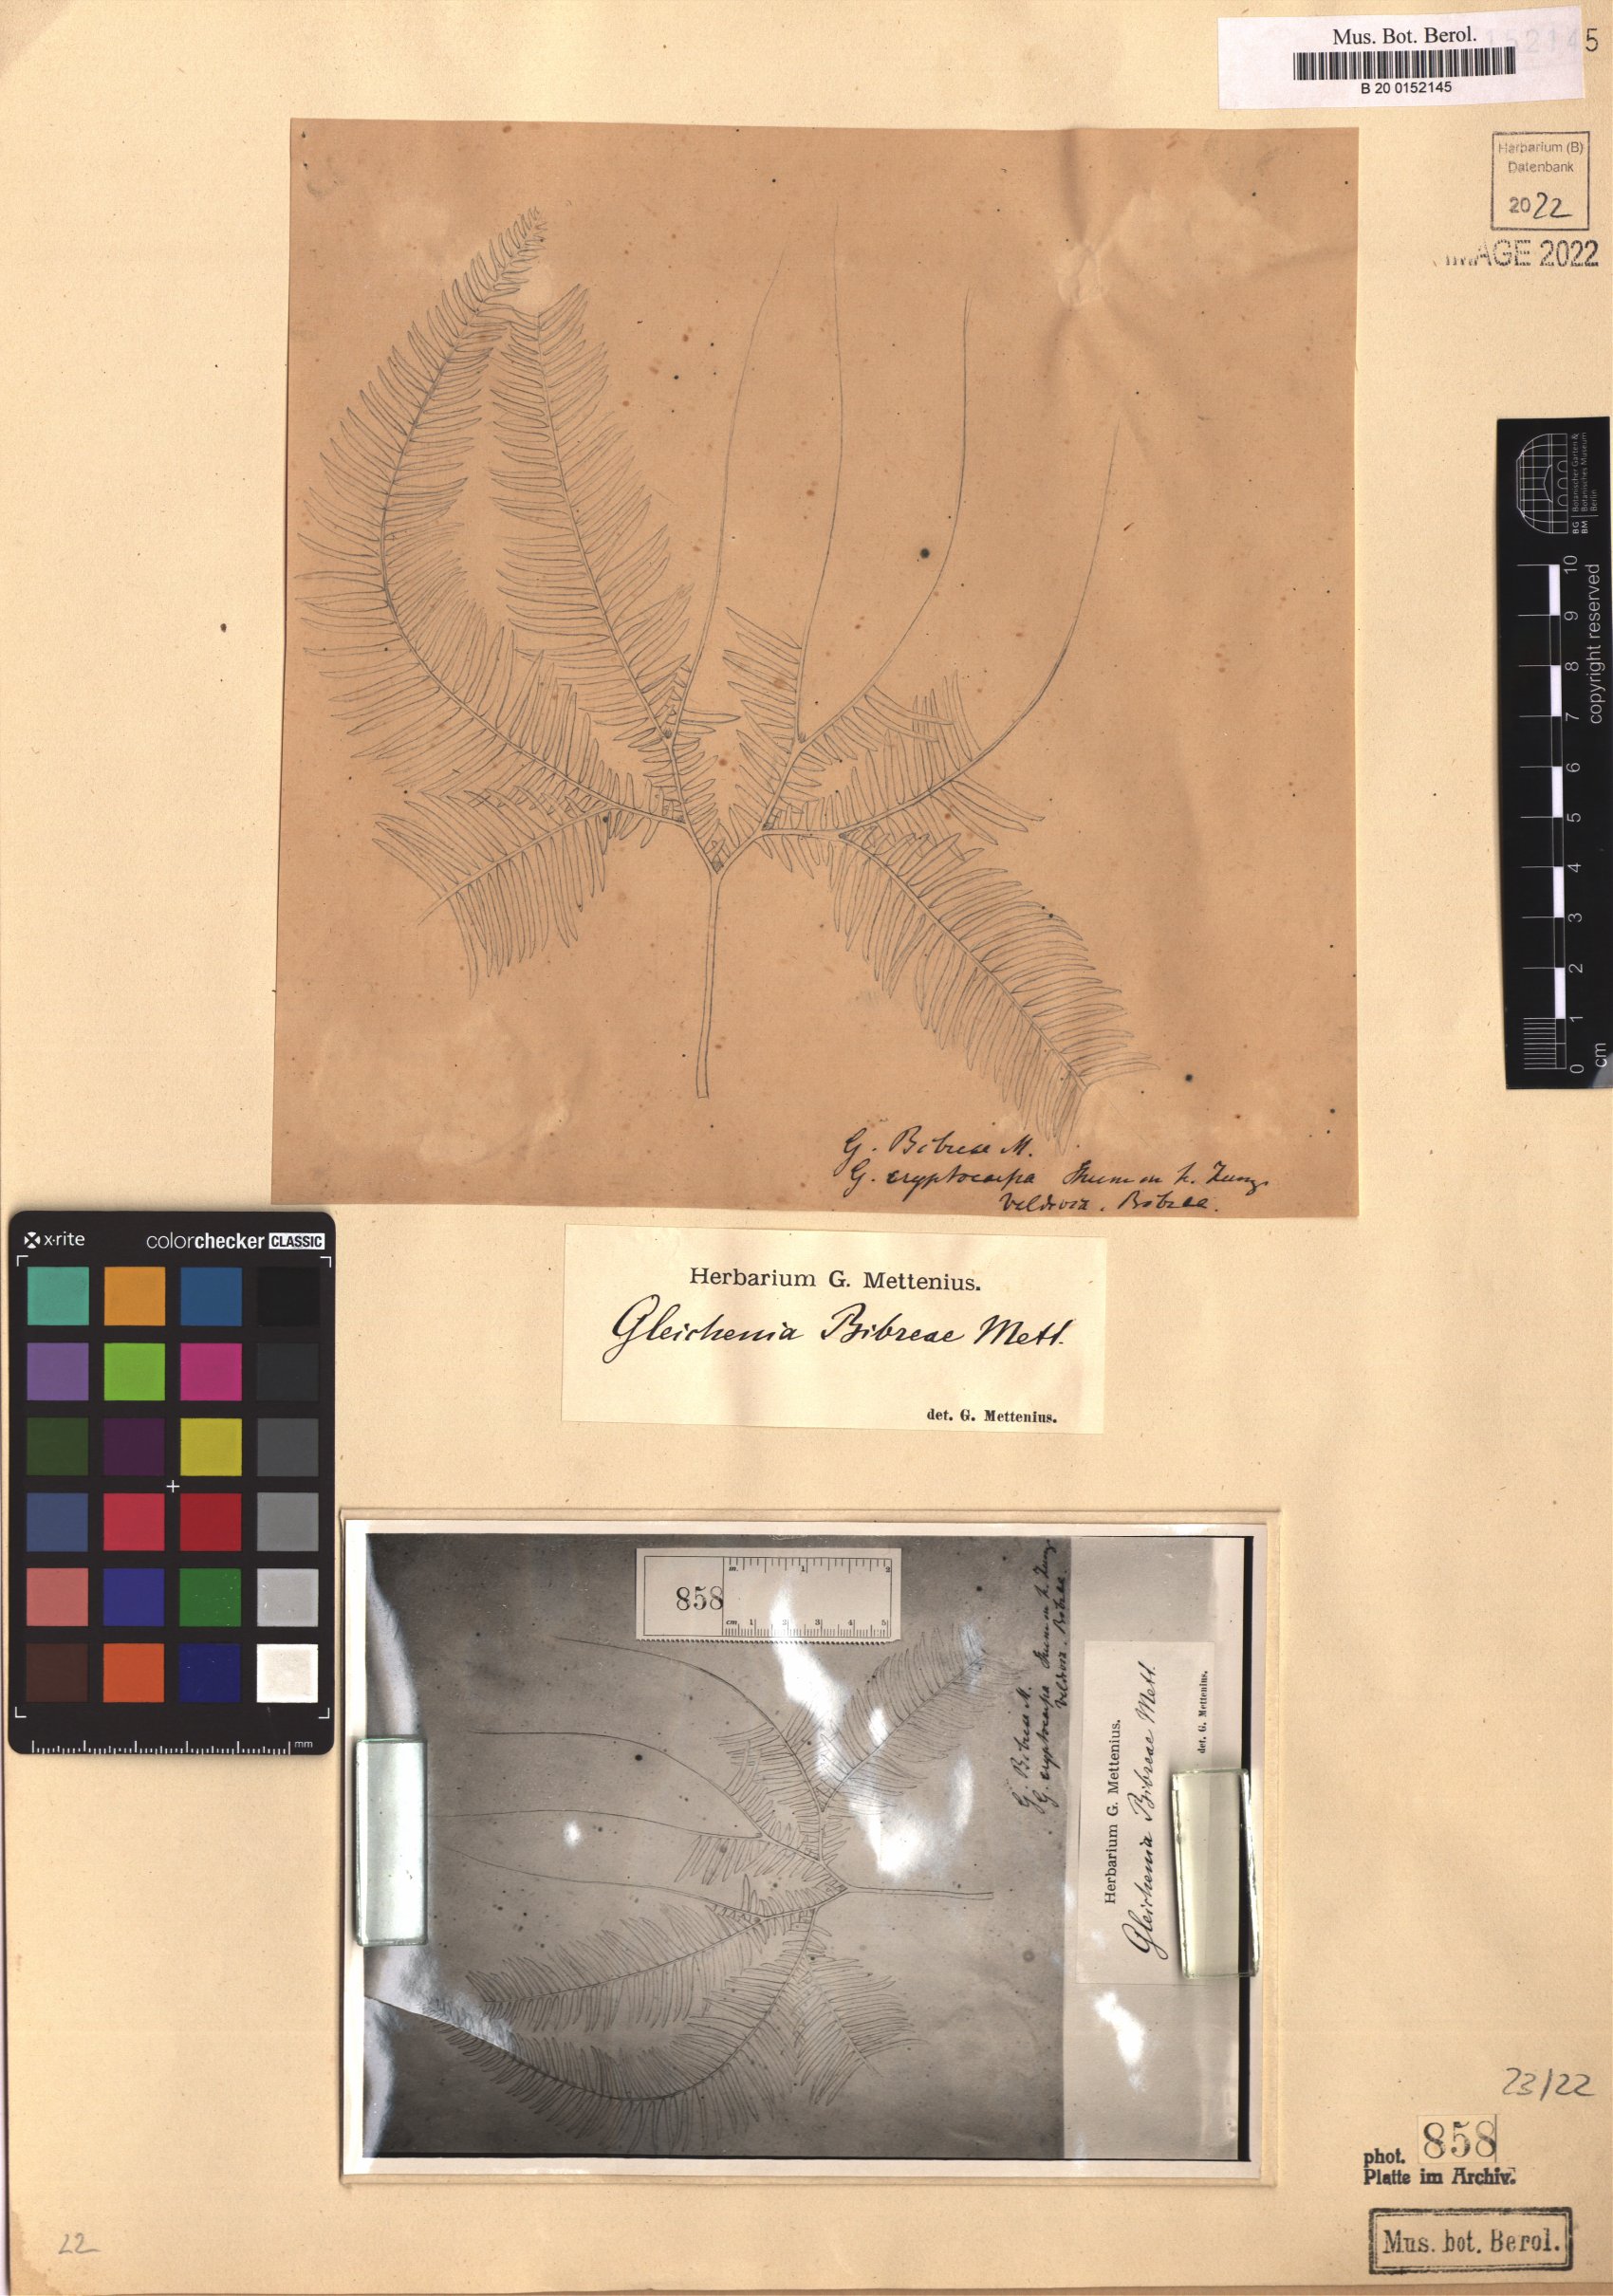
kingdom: Plantae
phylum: Tracheophyta
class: Polypodiopsida
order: Gleicheniales
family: Gleicheniaceae
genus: Sticherus
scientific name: Sticherus quadripartitus
